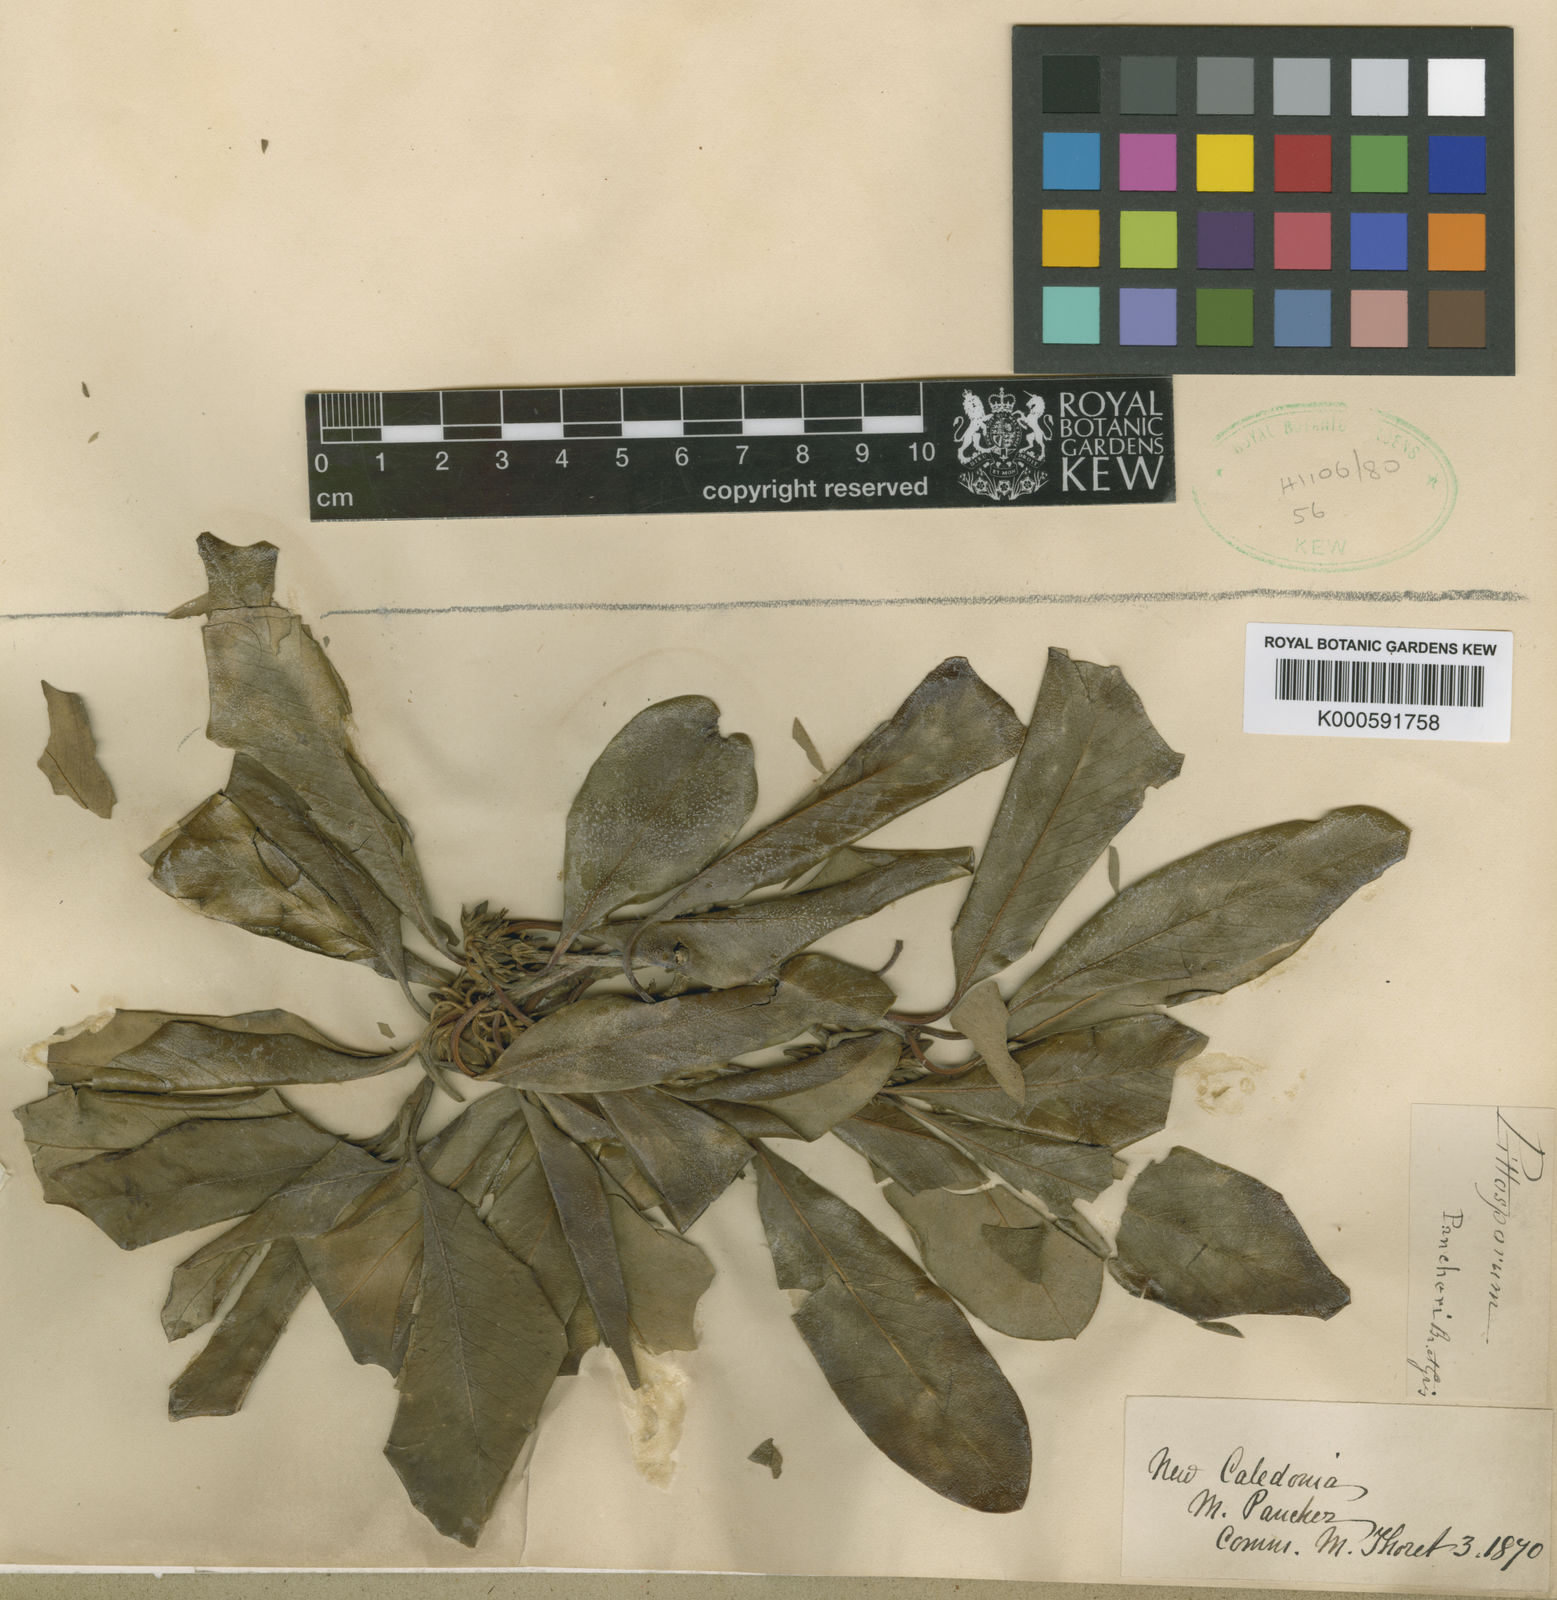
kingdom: Plantae
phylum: Tracheophyta
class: Magnoliopsida
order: Apiales
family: Pittosporaceae
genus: Pittosporum
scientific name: Pittosporum pancheri
